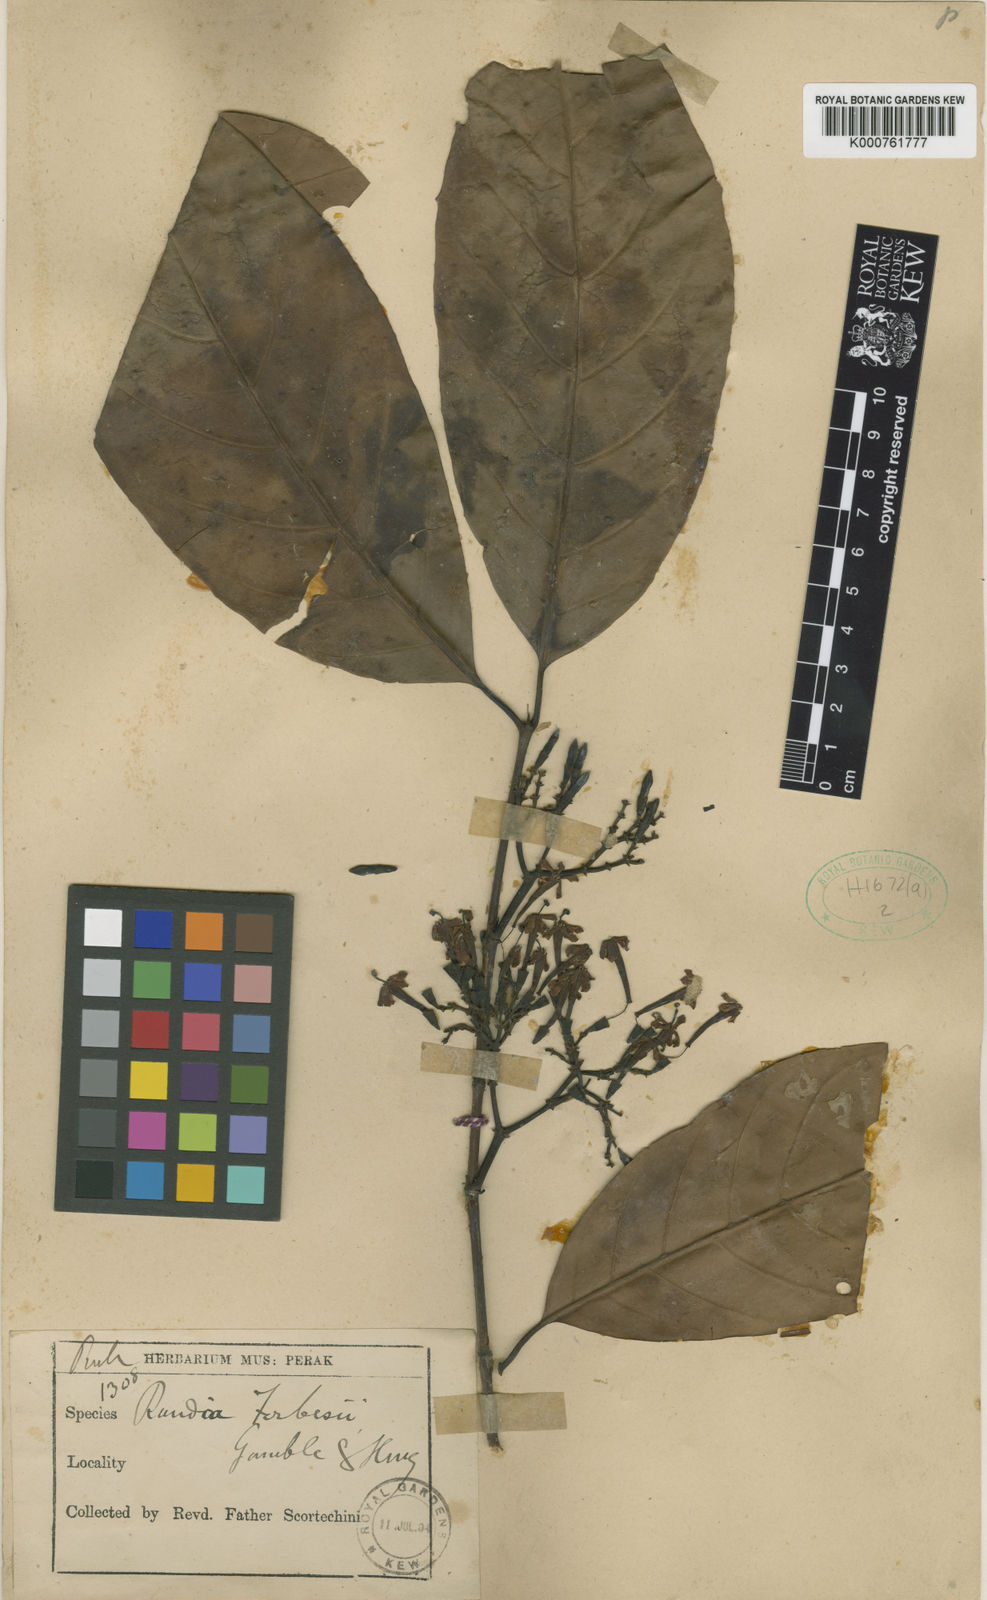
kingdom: Plantae
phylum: Tracheophyta
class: Magnoliopsida
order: Gentianales
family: Rubiaceae
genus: Aidiopsis
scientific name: Aidiopsis orophila
